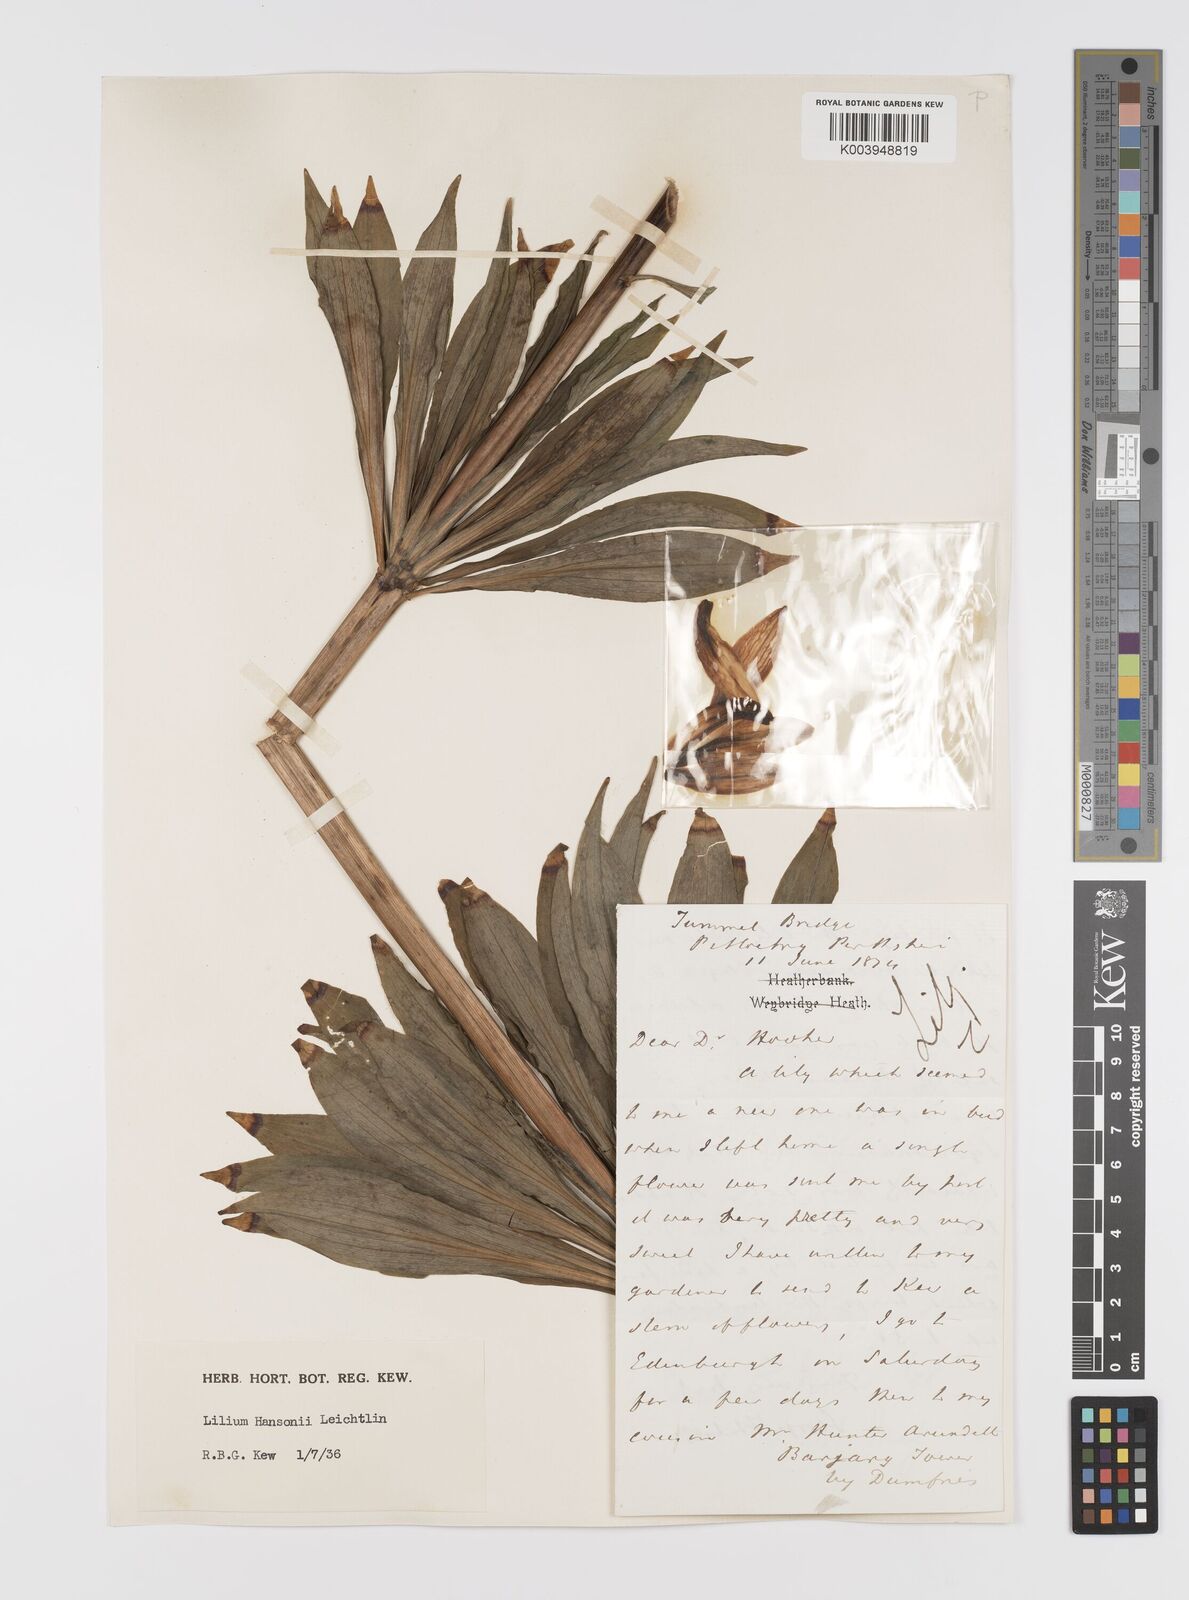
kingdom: Plantae
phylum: Tracheophyta
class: Liliopsida
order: Liliales
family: Liliaceae
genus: Lilium
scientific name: Lilium hansonii
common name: Hanson's lily
